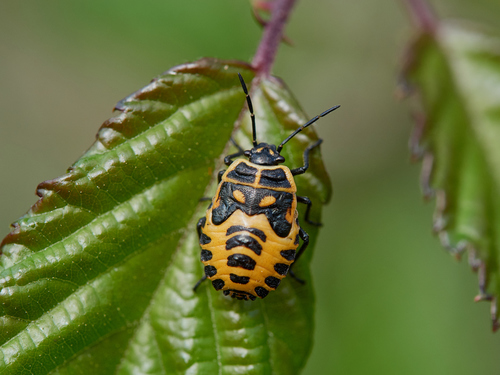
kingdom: Animalia
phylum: Arthropoda
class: Insecta
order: Hemiptera
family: Pentatomidae
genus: Eurydema
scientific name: Eurydema ventralis
